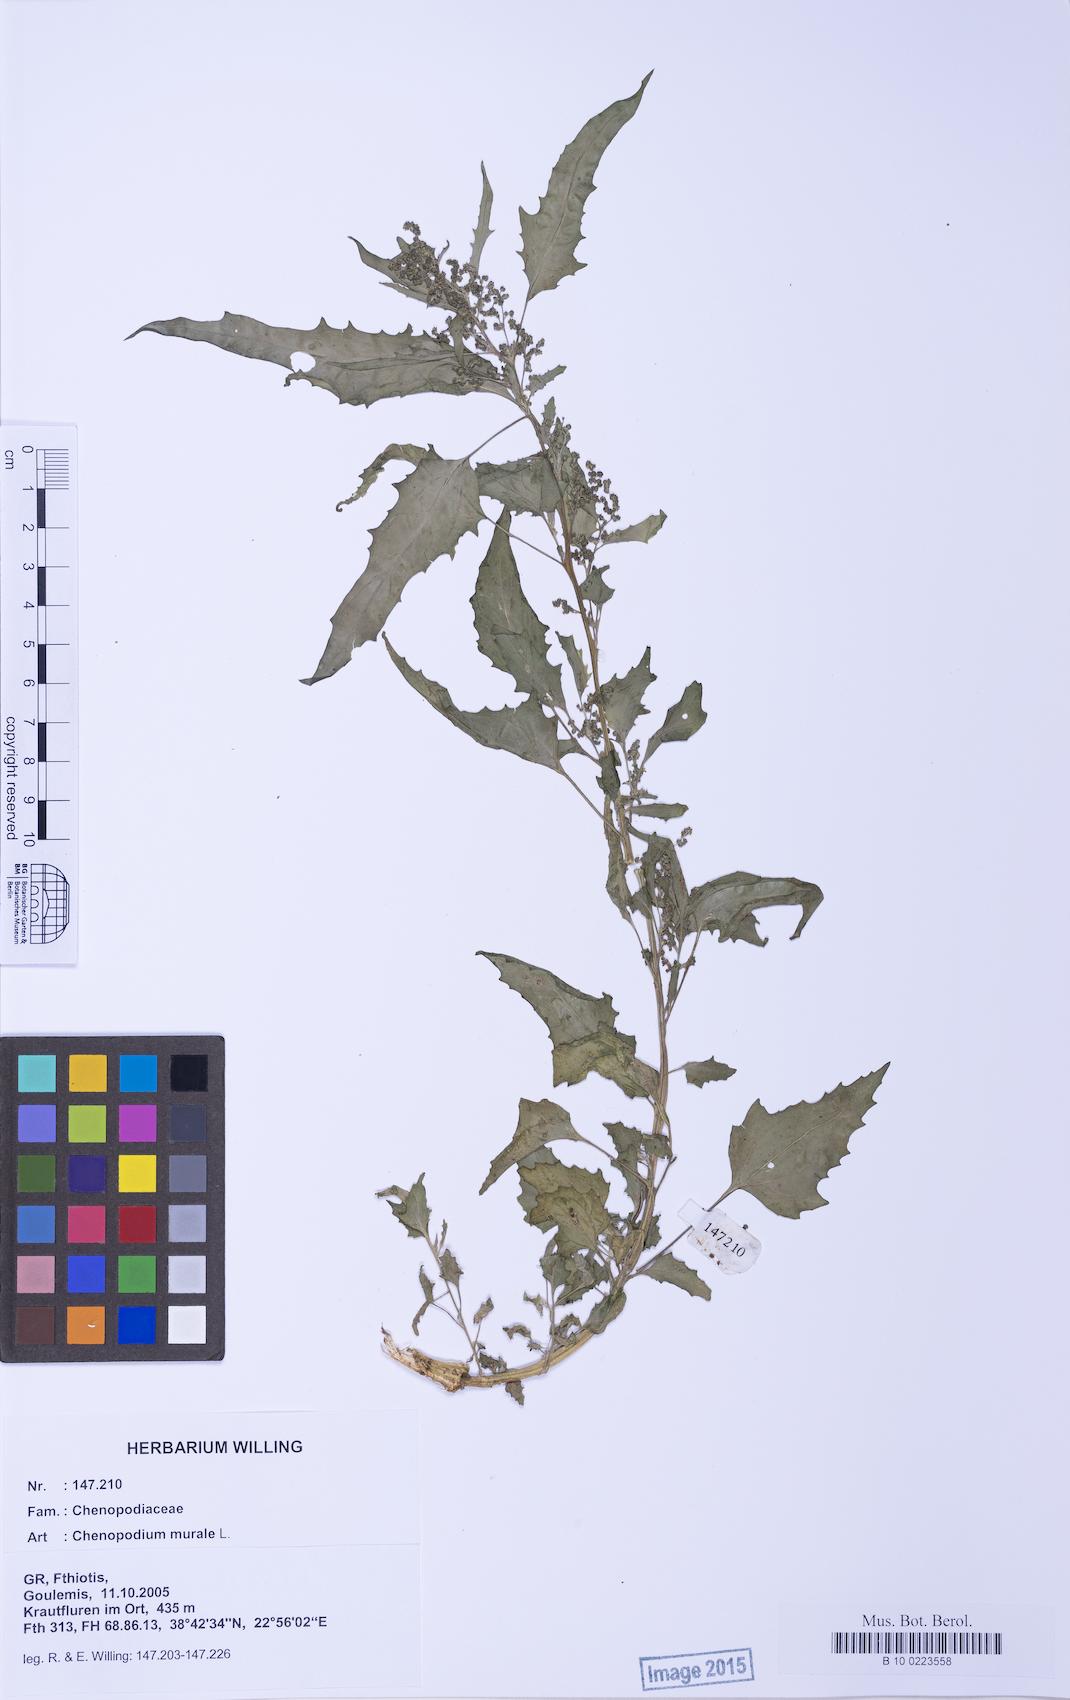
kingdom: Plantae
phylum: Tracheophyta
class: Magnoliopsida
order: Caryophyllales
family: Amaranthaceae
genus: Chenopodiastrum
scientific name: Chenopodiastrum murale
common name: Sowbane
